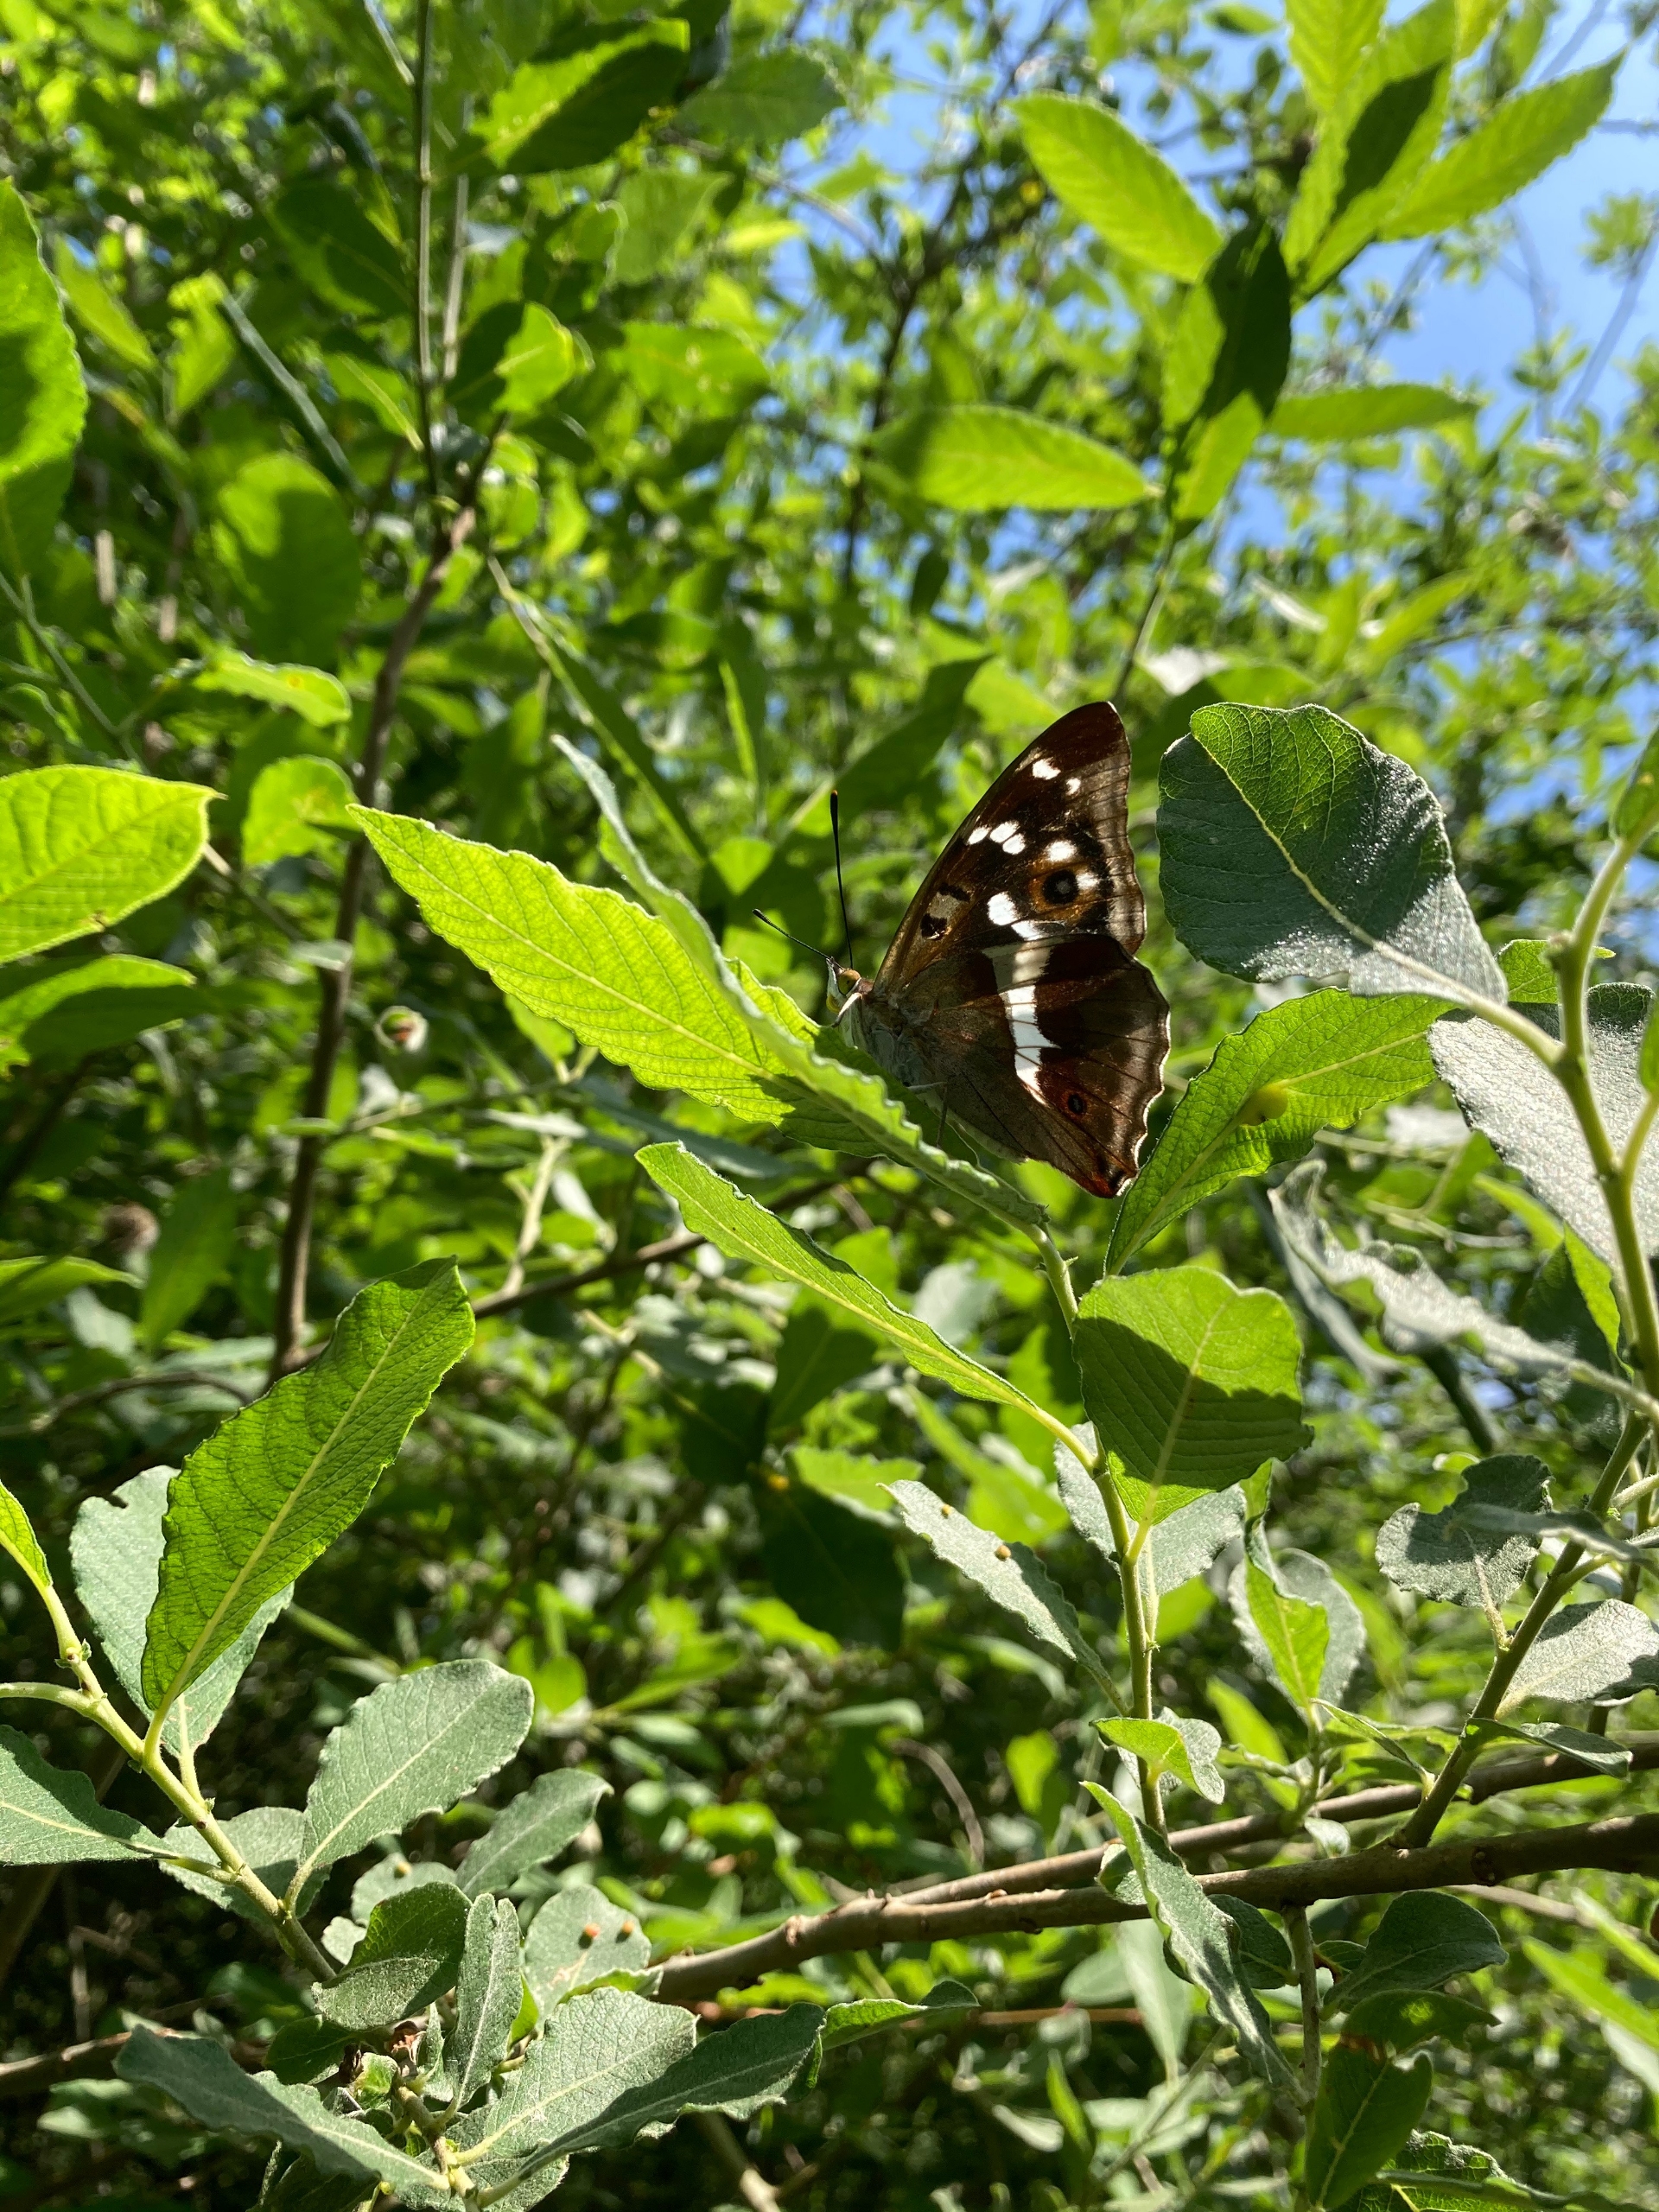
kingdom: Animalia
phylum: Arthropoda
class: Insecta
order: Lepidoptera
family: Nymphalidae
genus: Apatura
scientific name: Apatura iris
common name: Iris
